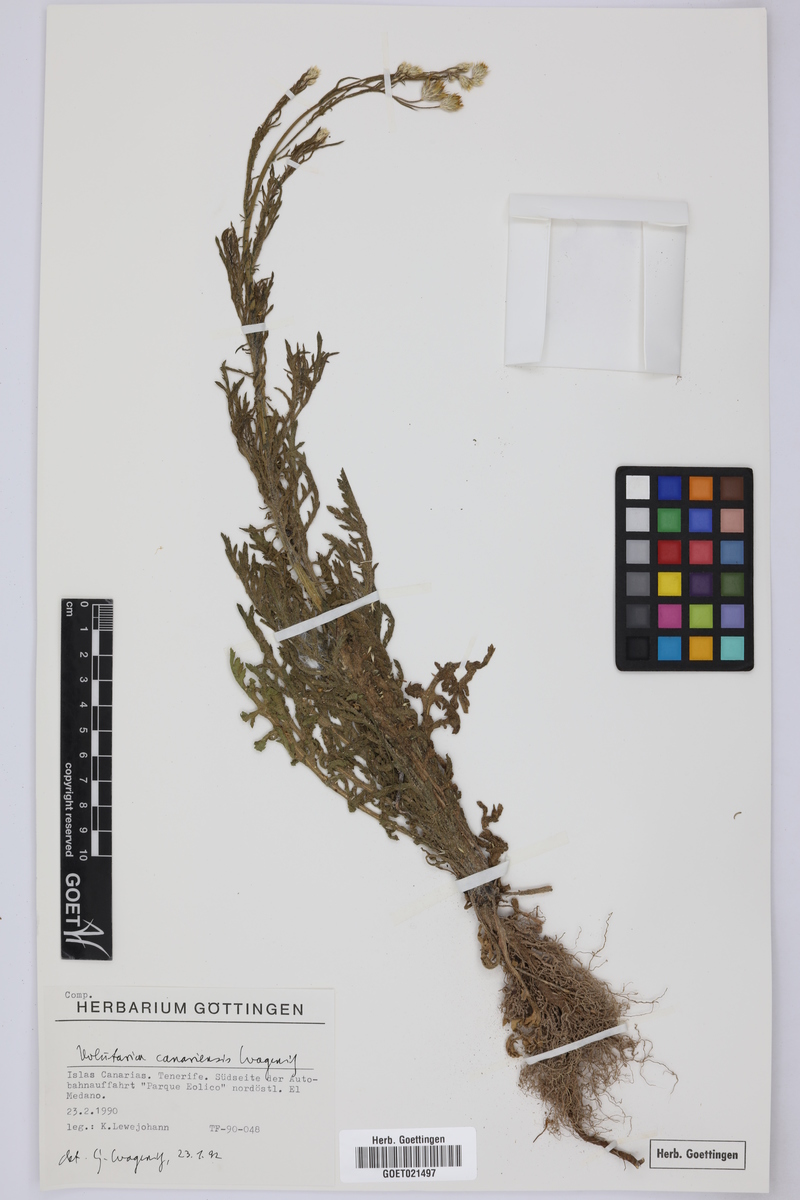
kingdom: Plantae
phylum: Tracheophyta
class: Magnoliopsida
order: Asterales
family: Asteraceae
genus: Volutaria
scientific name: Volutaria canariensis
